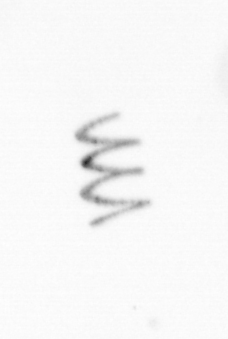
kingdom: Chromista
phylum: Ochrophyta
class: Bacillariophyceae
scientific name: Bacillariophyceae
